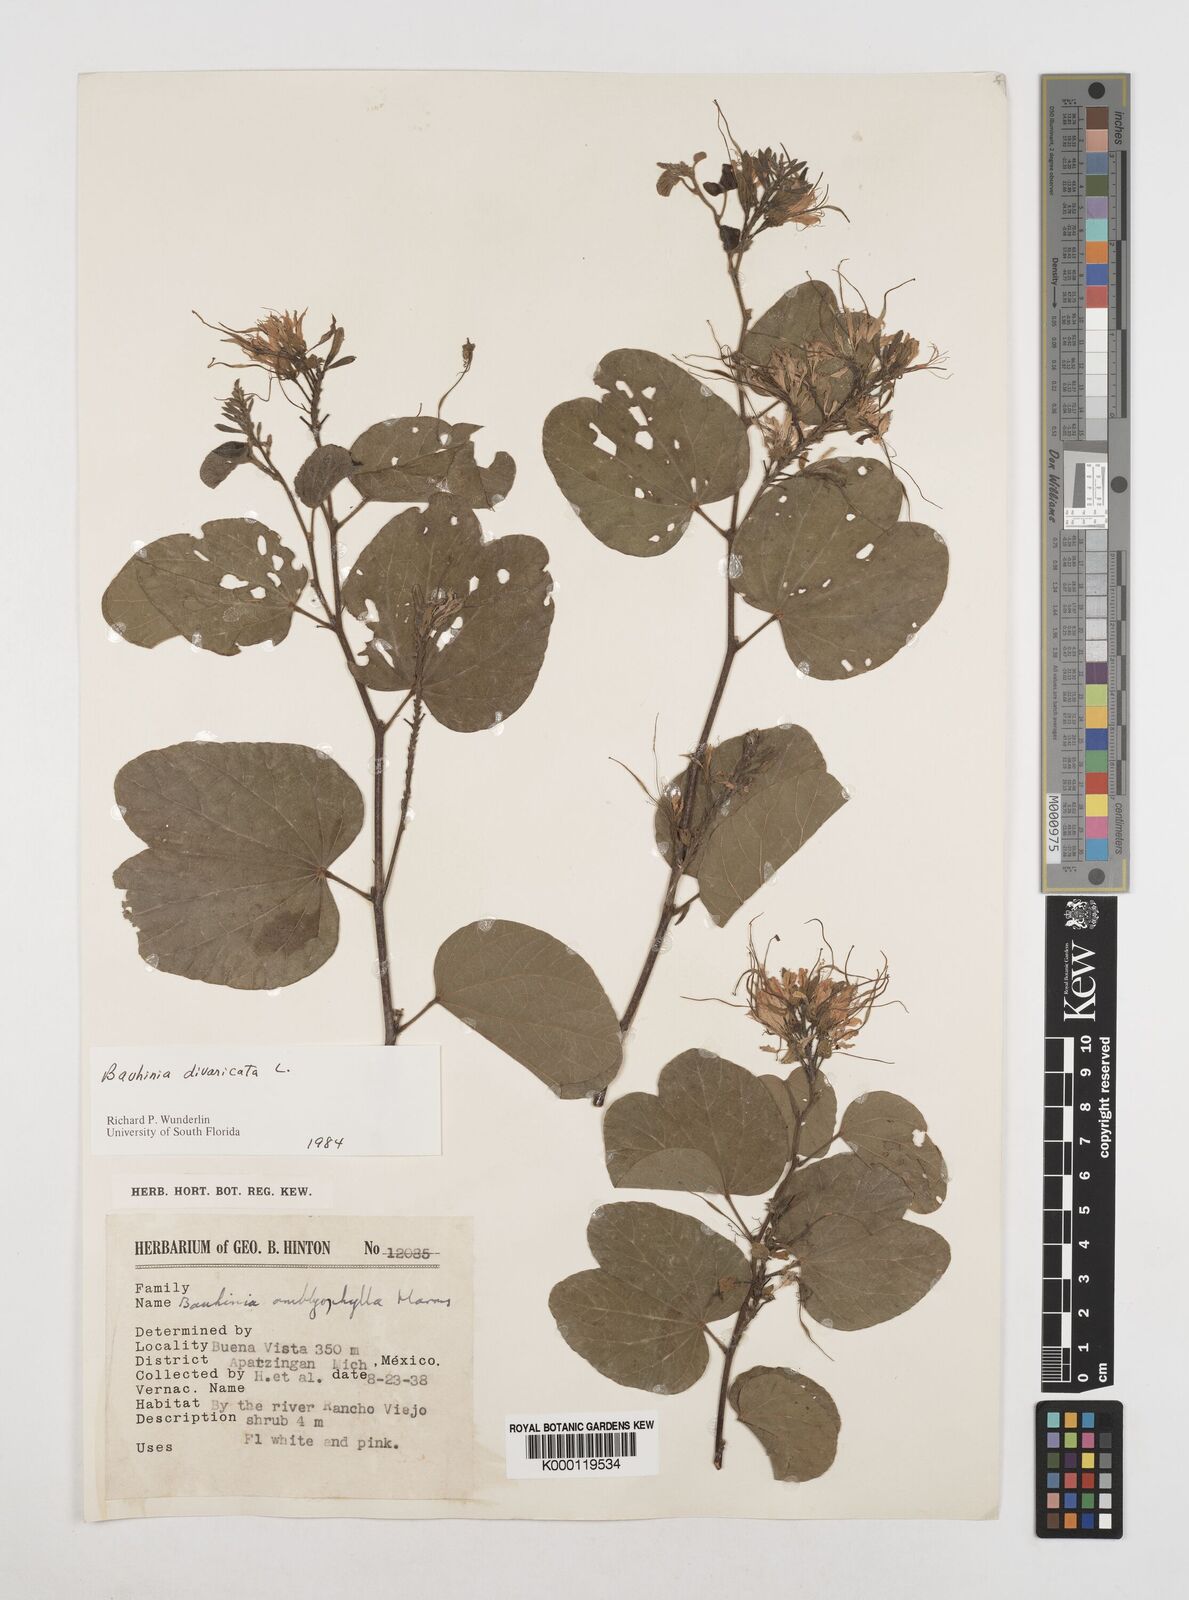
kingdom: Plantae
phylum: Tracheophyta
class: Magnoliopsida
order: Fabales
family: Fabaceae
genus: Bauhinia
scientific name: Bauhinia divaricata
